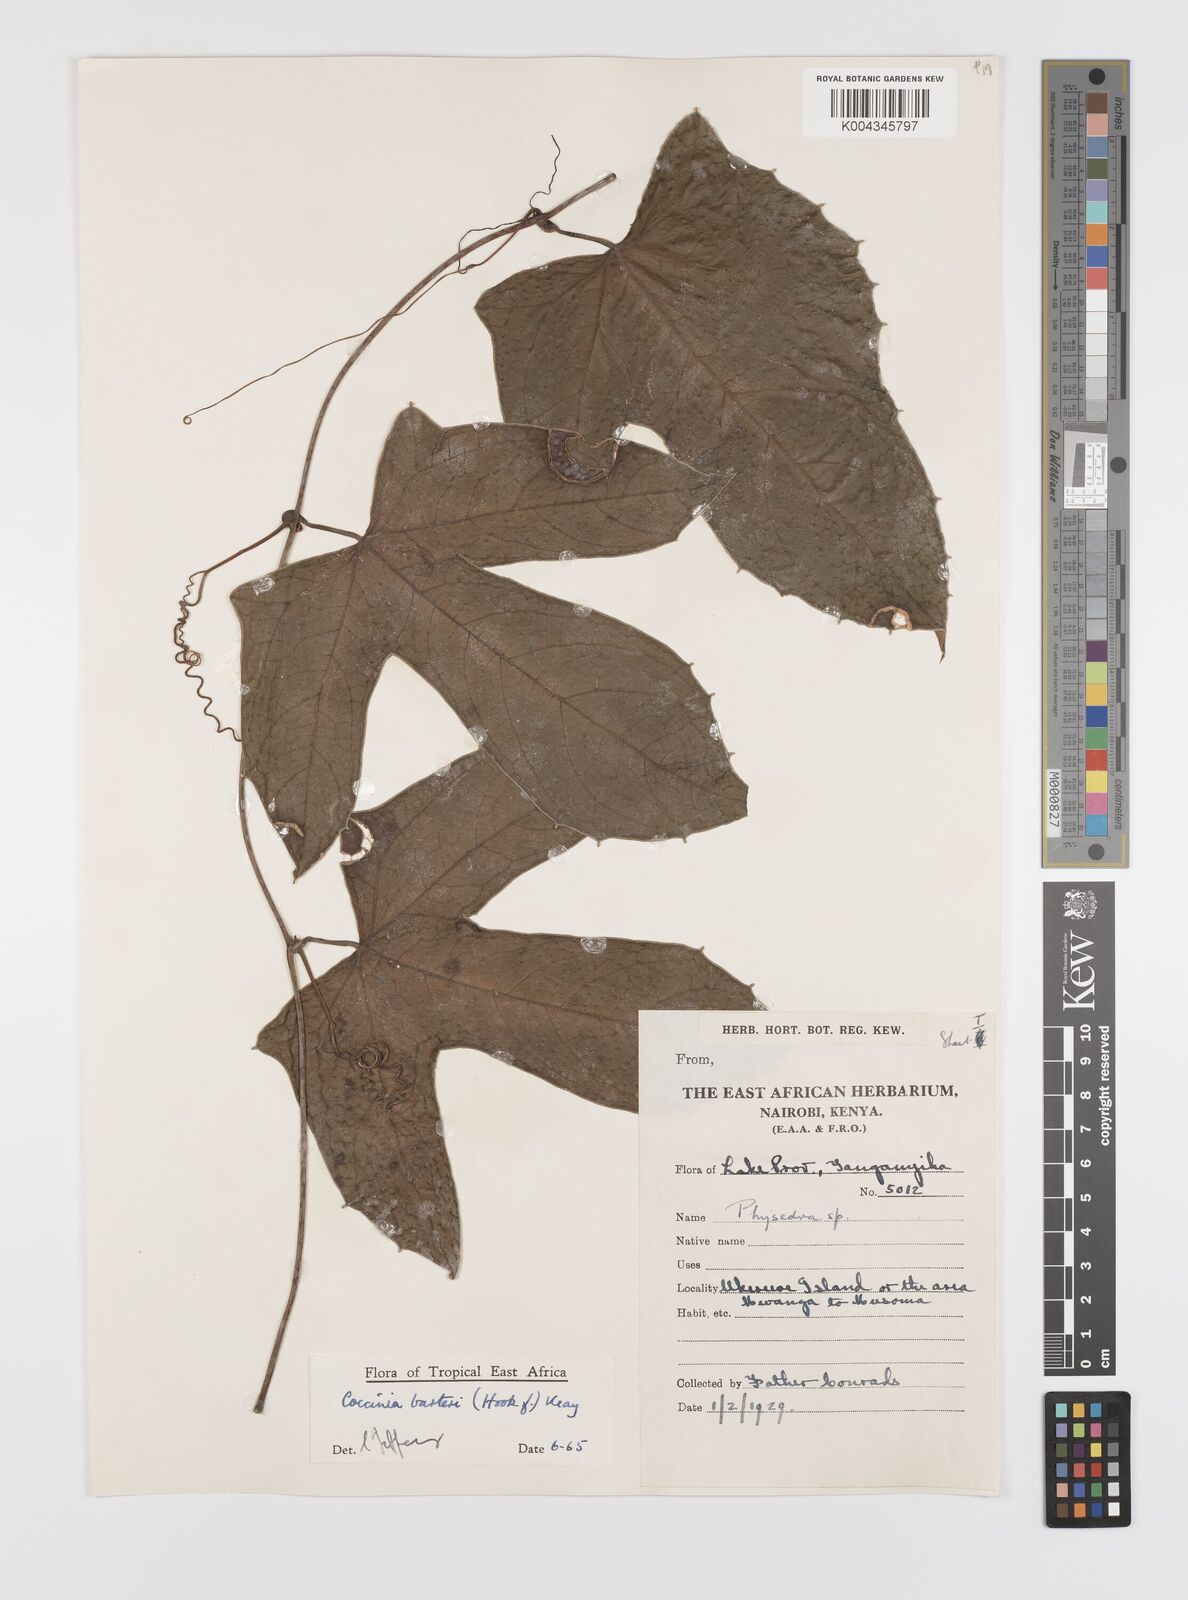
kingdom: Plantae
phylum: Tracheophyta
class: Magnoliopsida
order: Cucurbitales
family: Cucurbitaceae
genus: Coccinia
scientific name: Coccinia barteri
